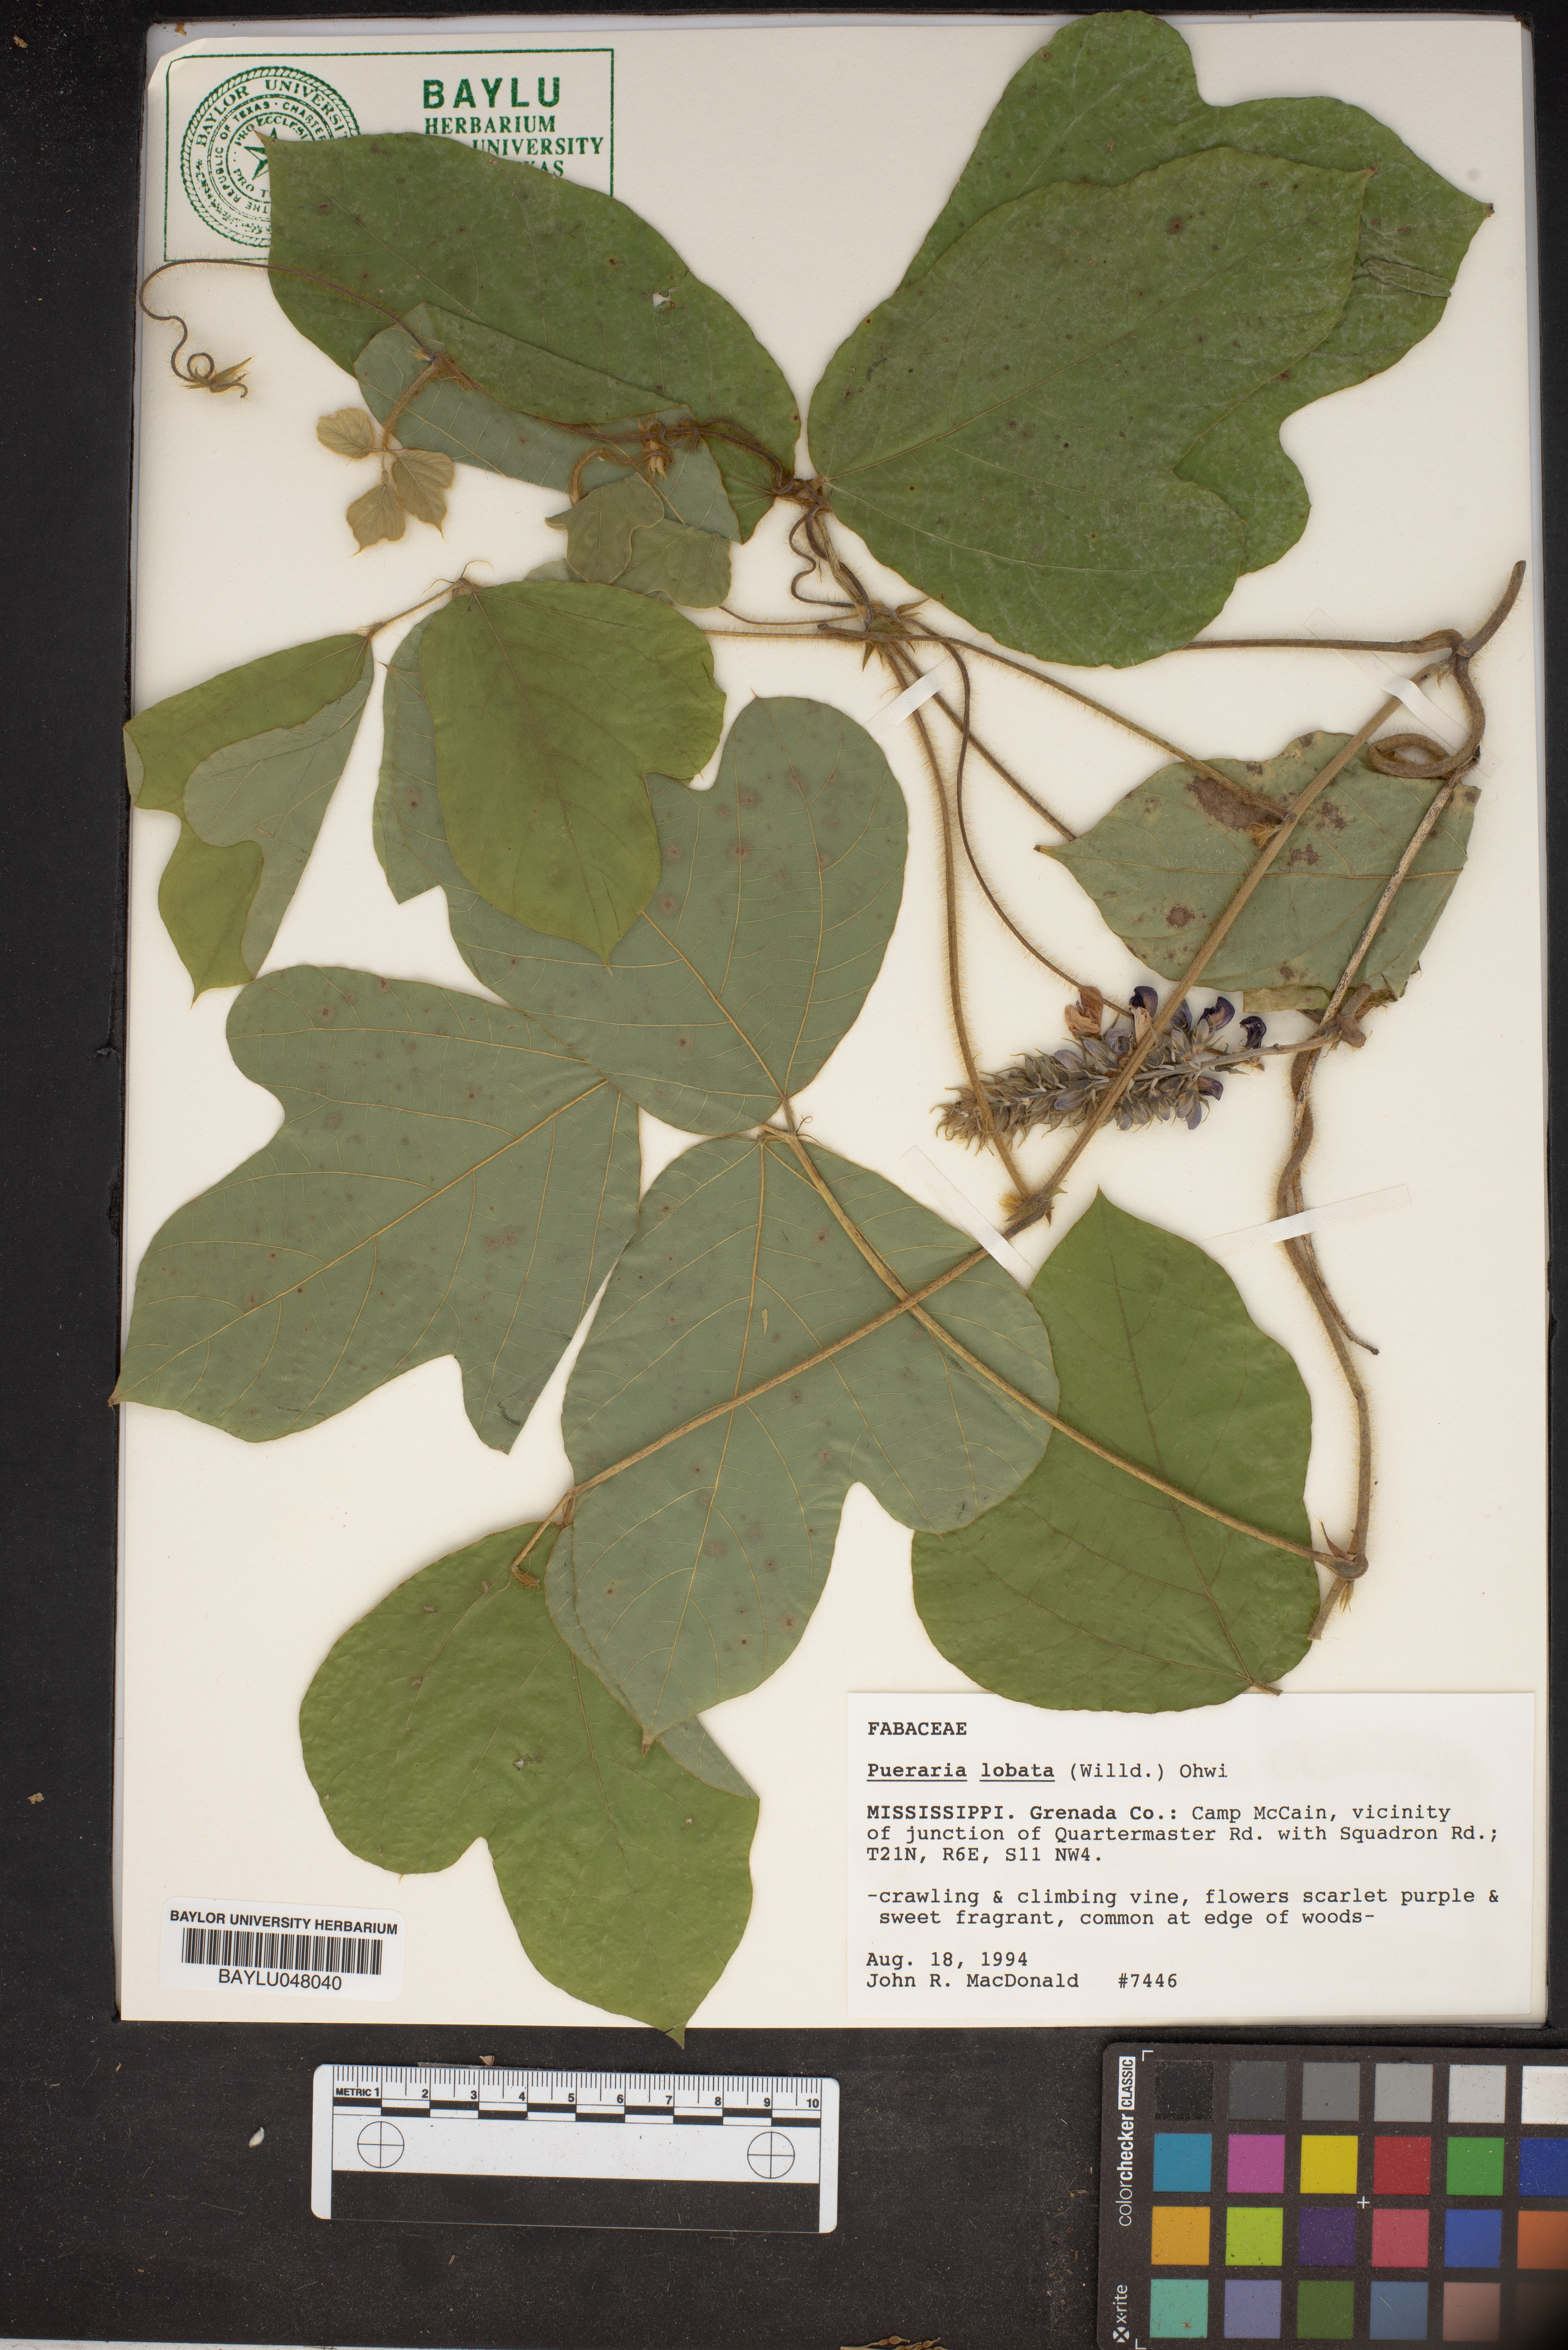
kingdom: Plantae
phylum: Tracheophyta
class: Magnoliopsida
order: Fabales
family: Fabaceae
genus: Pueraria
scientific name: Pueraria montana
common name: Kudzu
